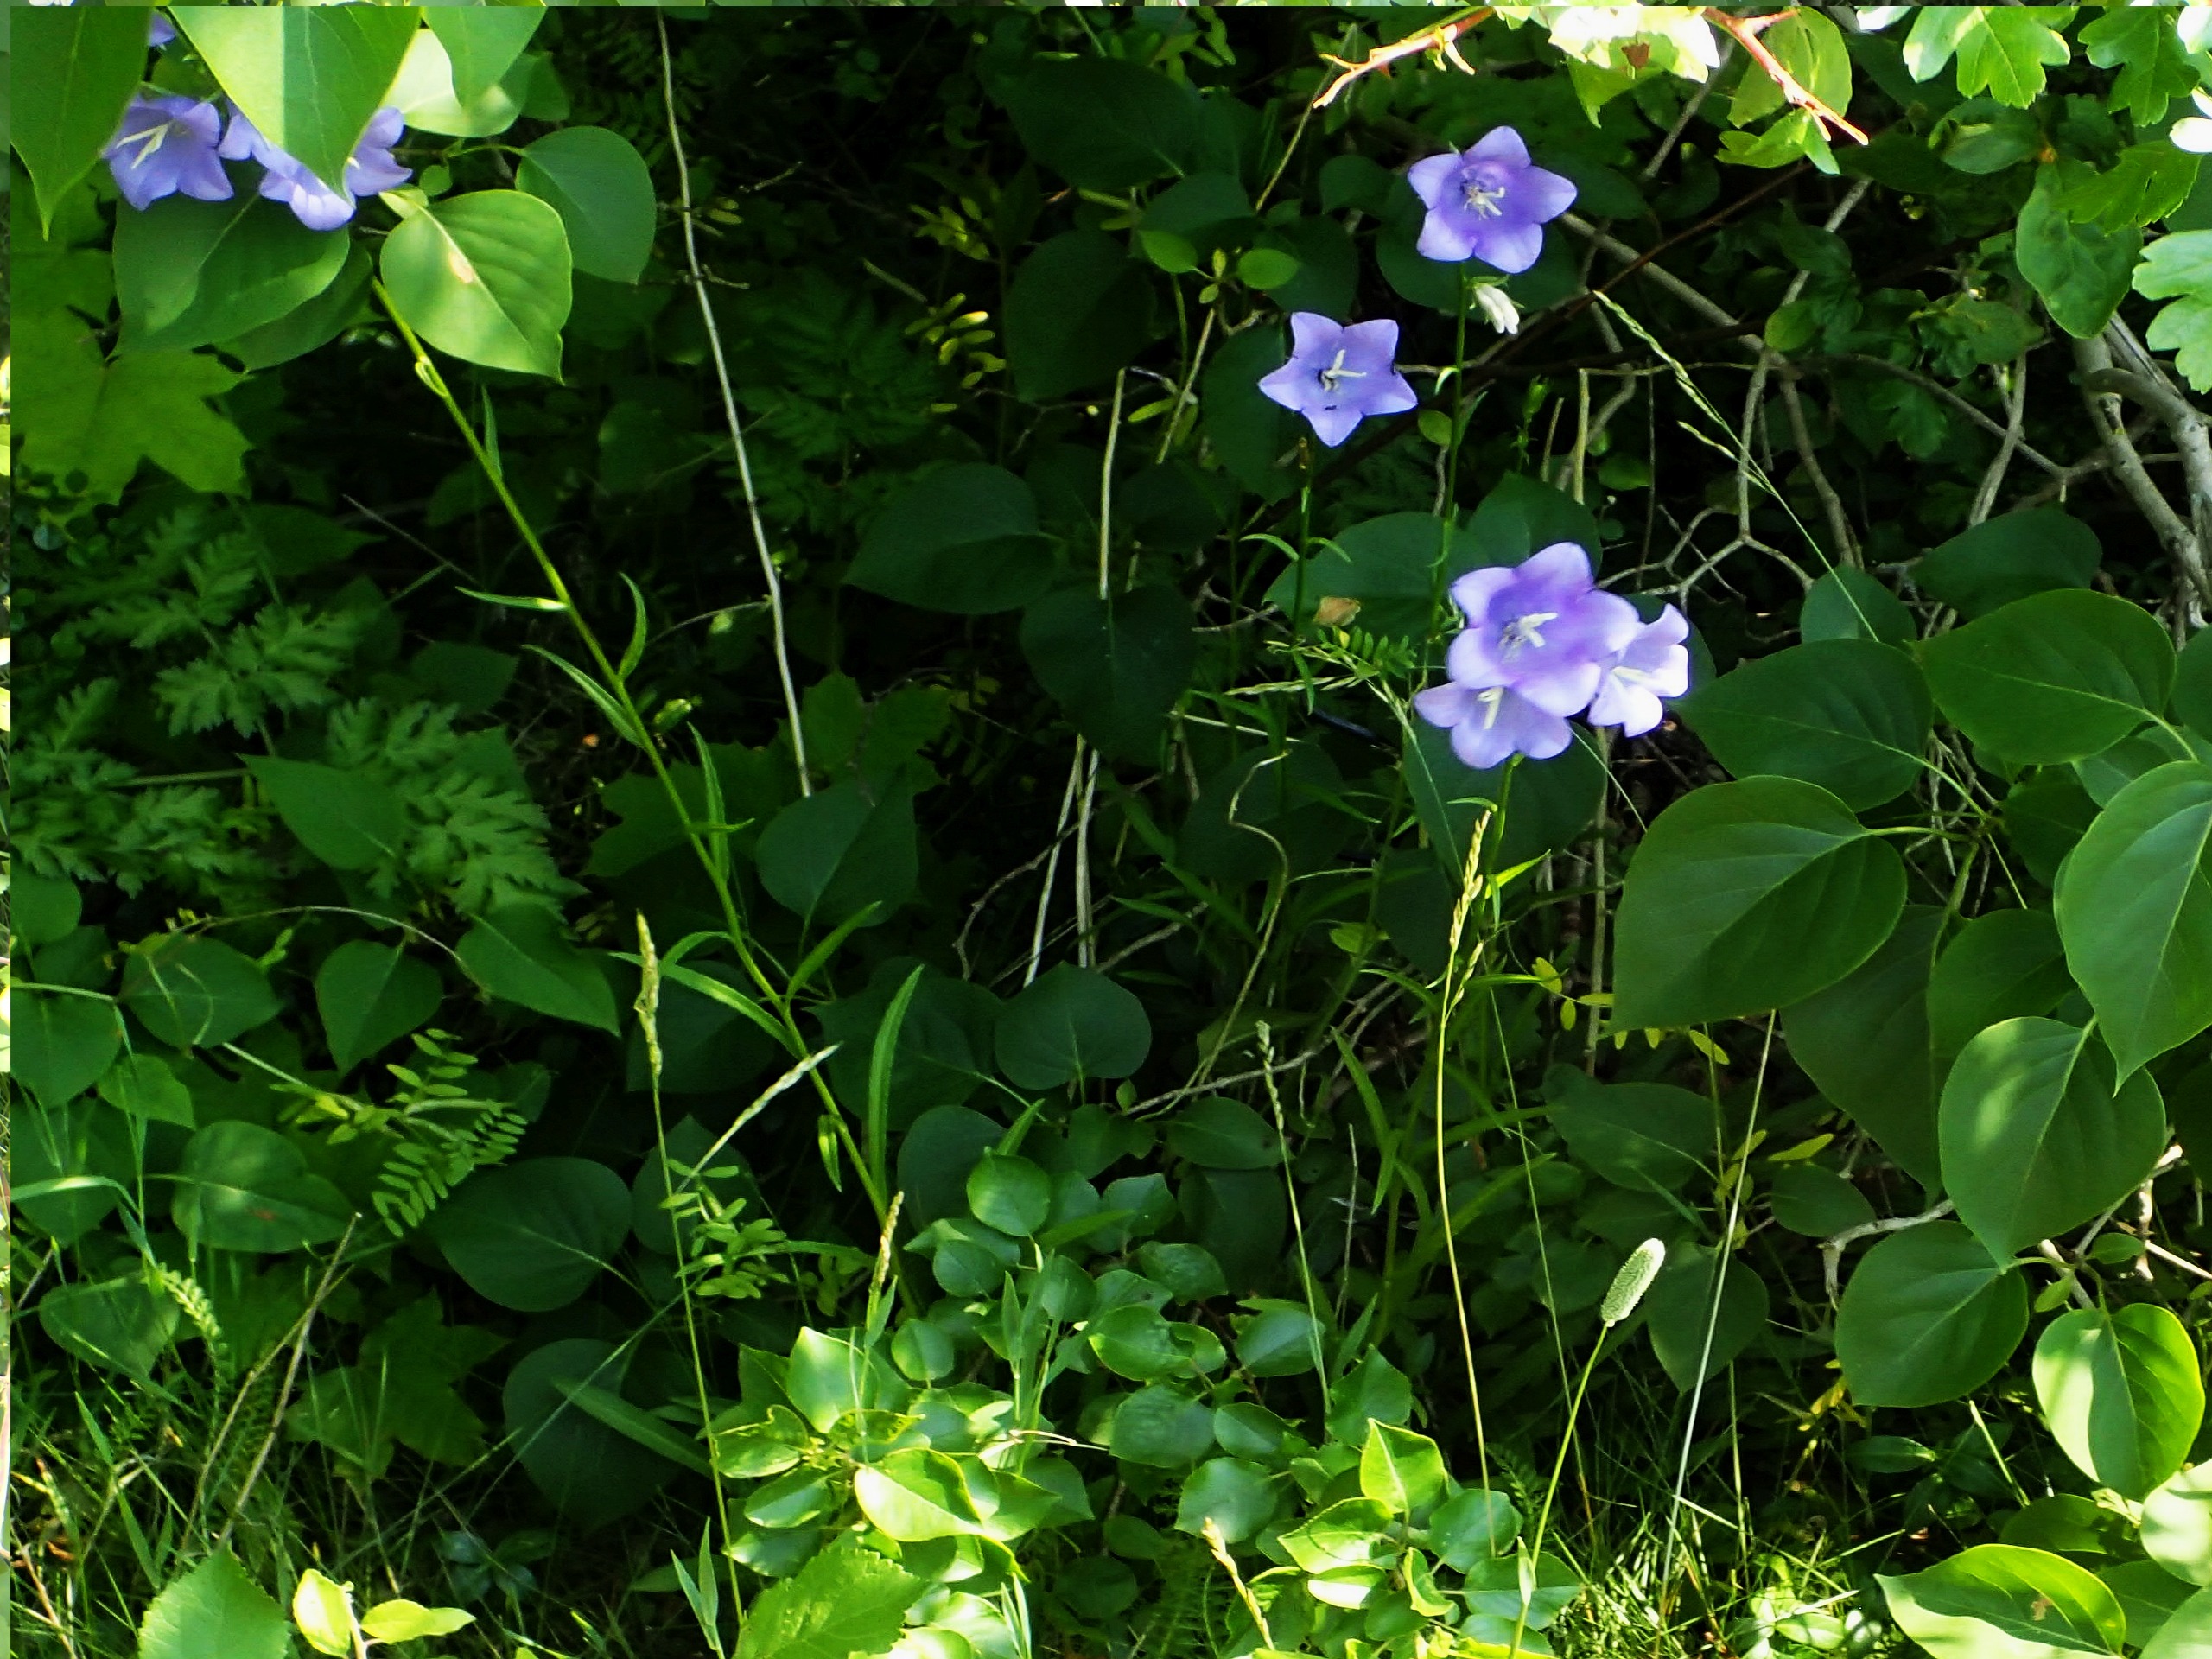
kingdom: Plantae
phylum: Tracheophyta
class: Magnoliopsida
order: Asterales
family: Campanulaceae
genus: Campanula
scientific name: Campanula persicifolia
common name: Smalbladet klokke
